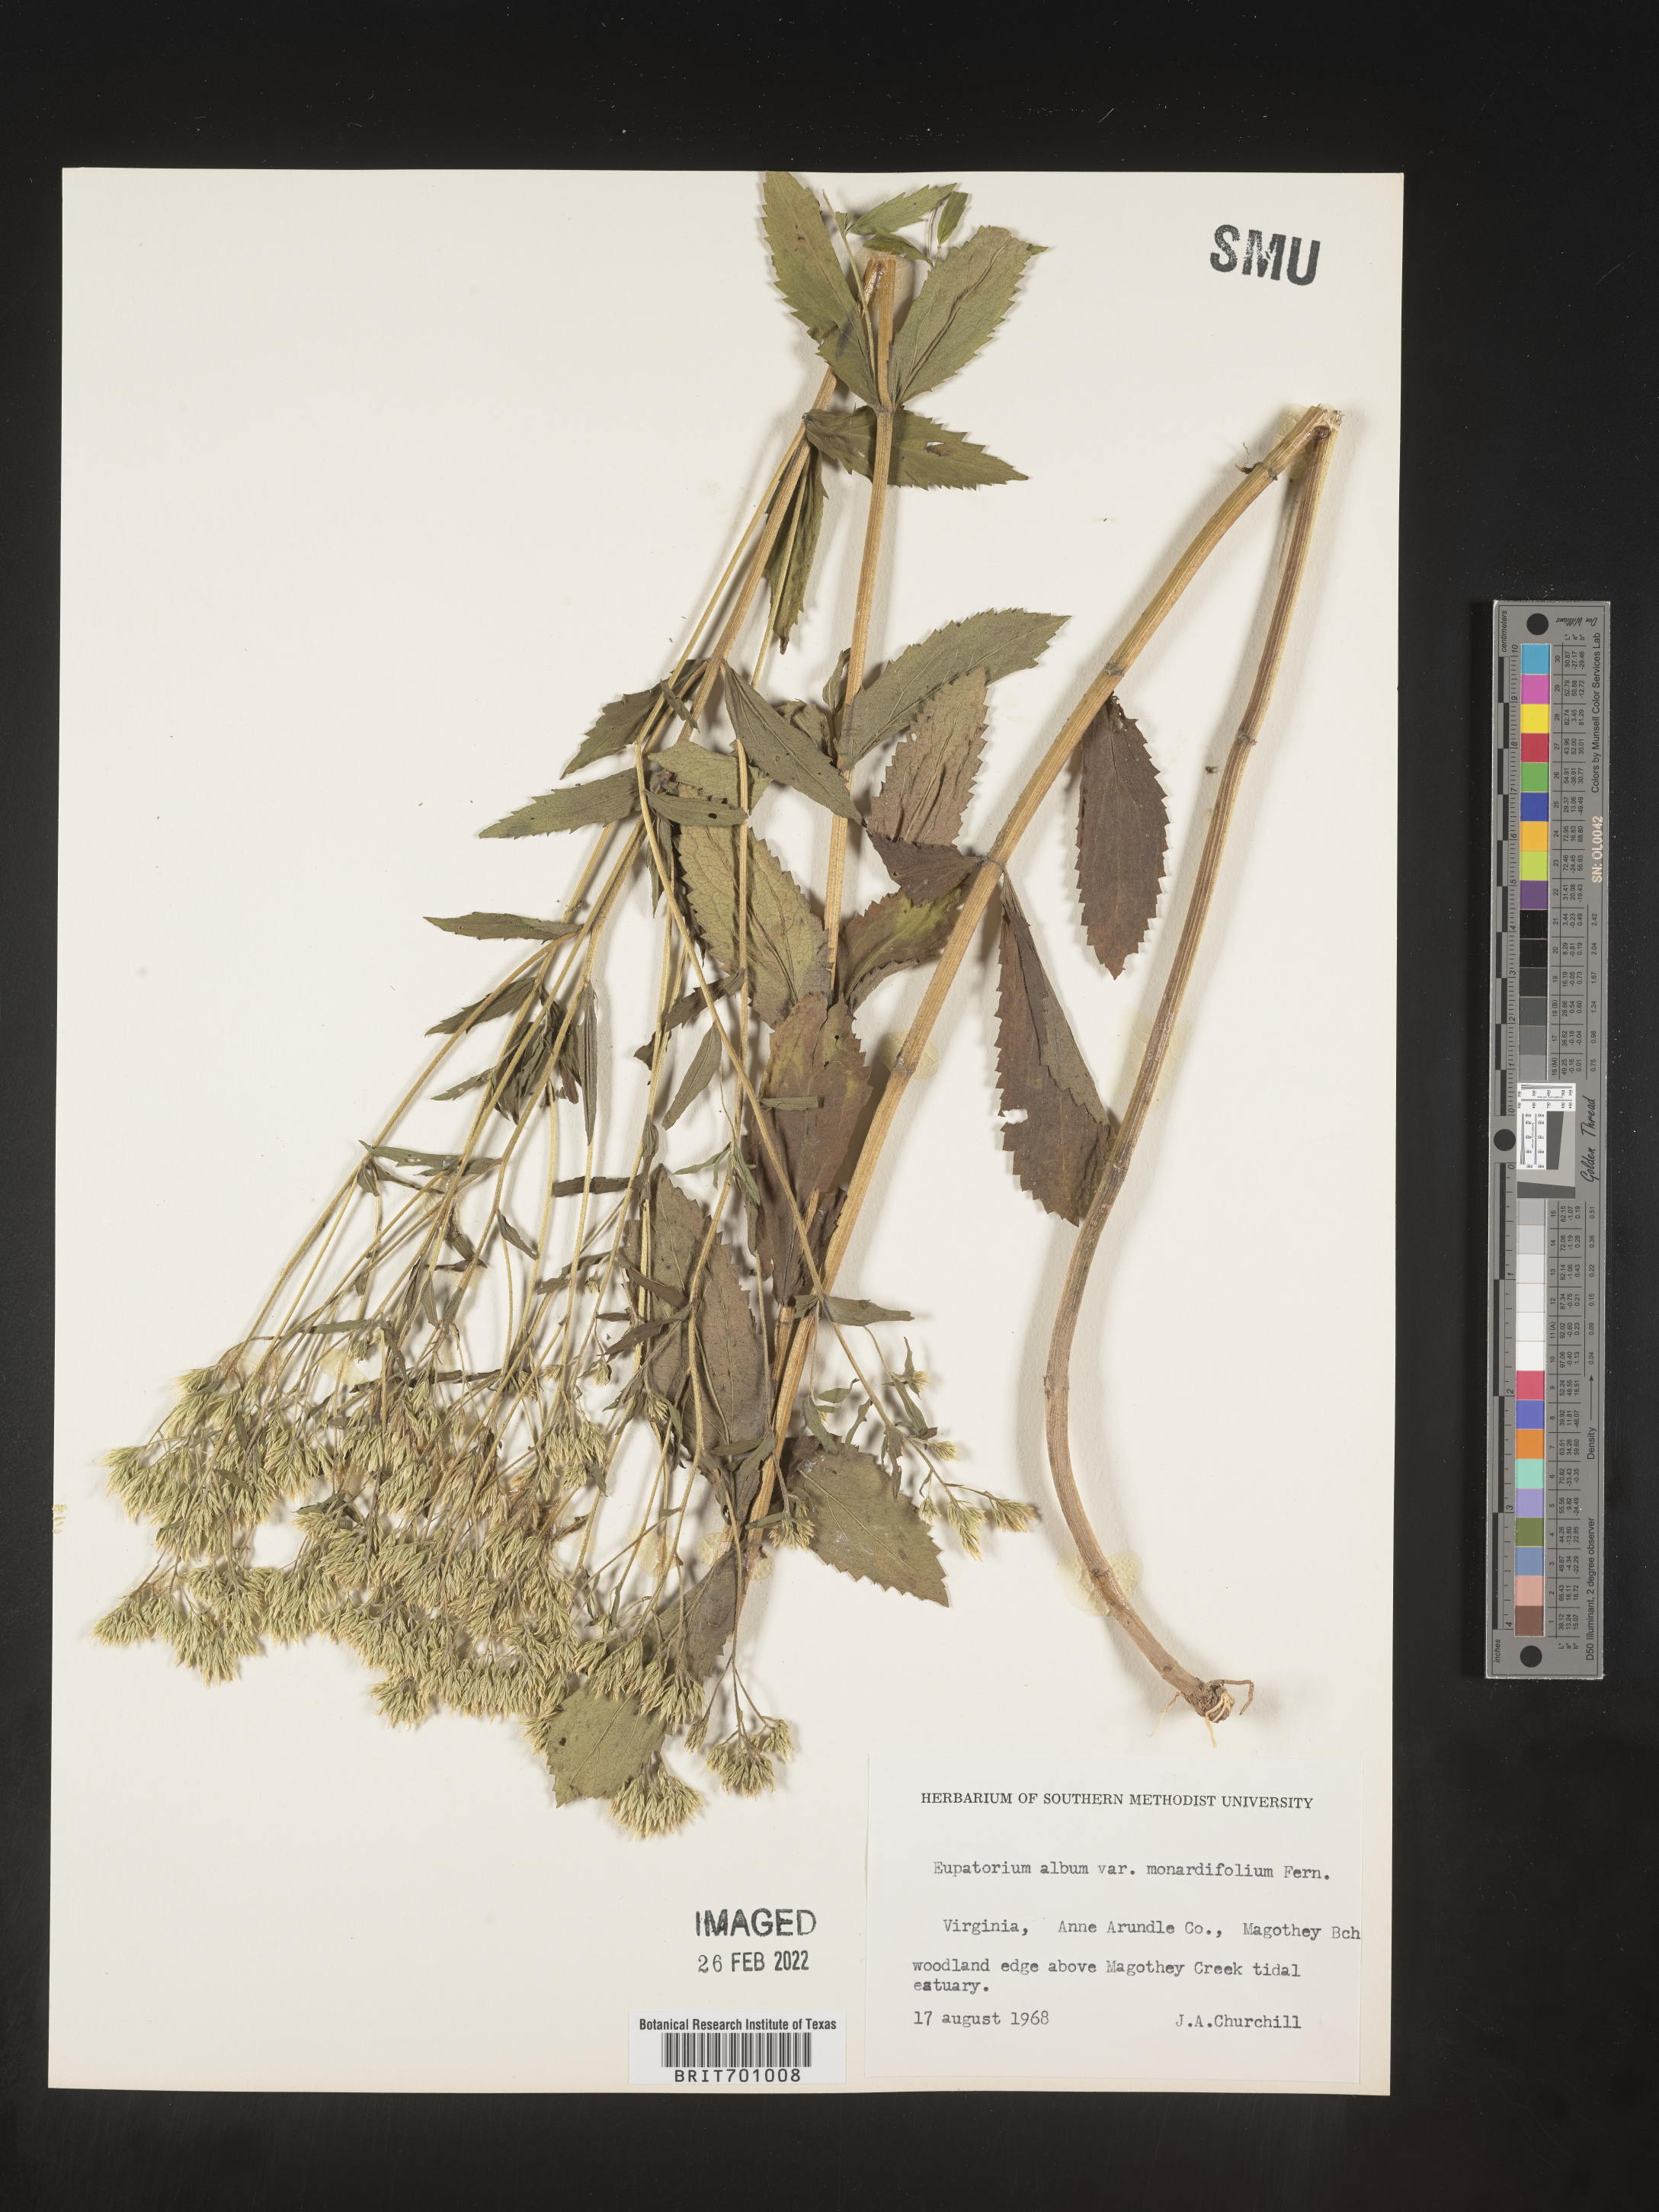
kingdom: Plantae
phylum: Tracheophyta
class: Magnoliopsida
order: Asterales
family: Asteraceae
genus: Eupatorium
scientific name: Eupatorium album
